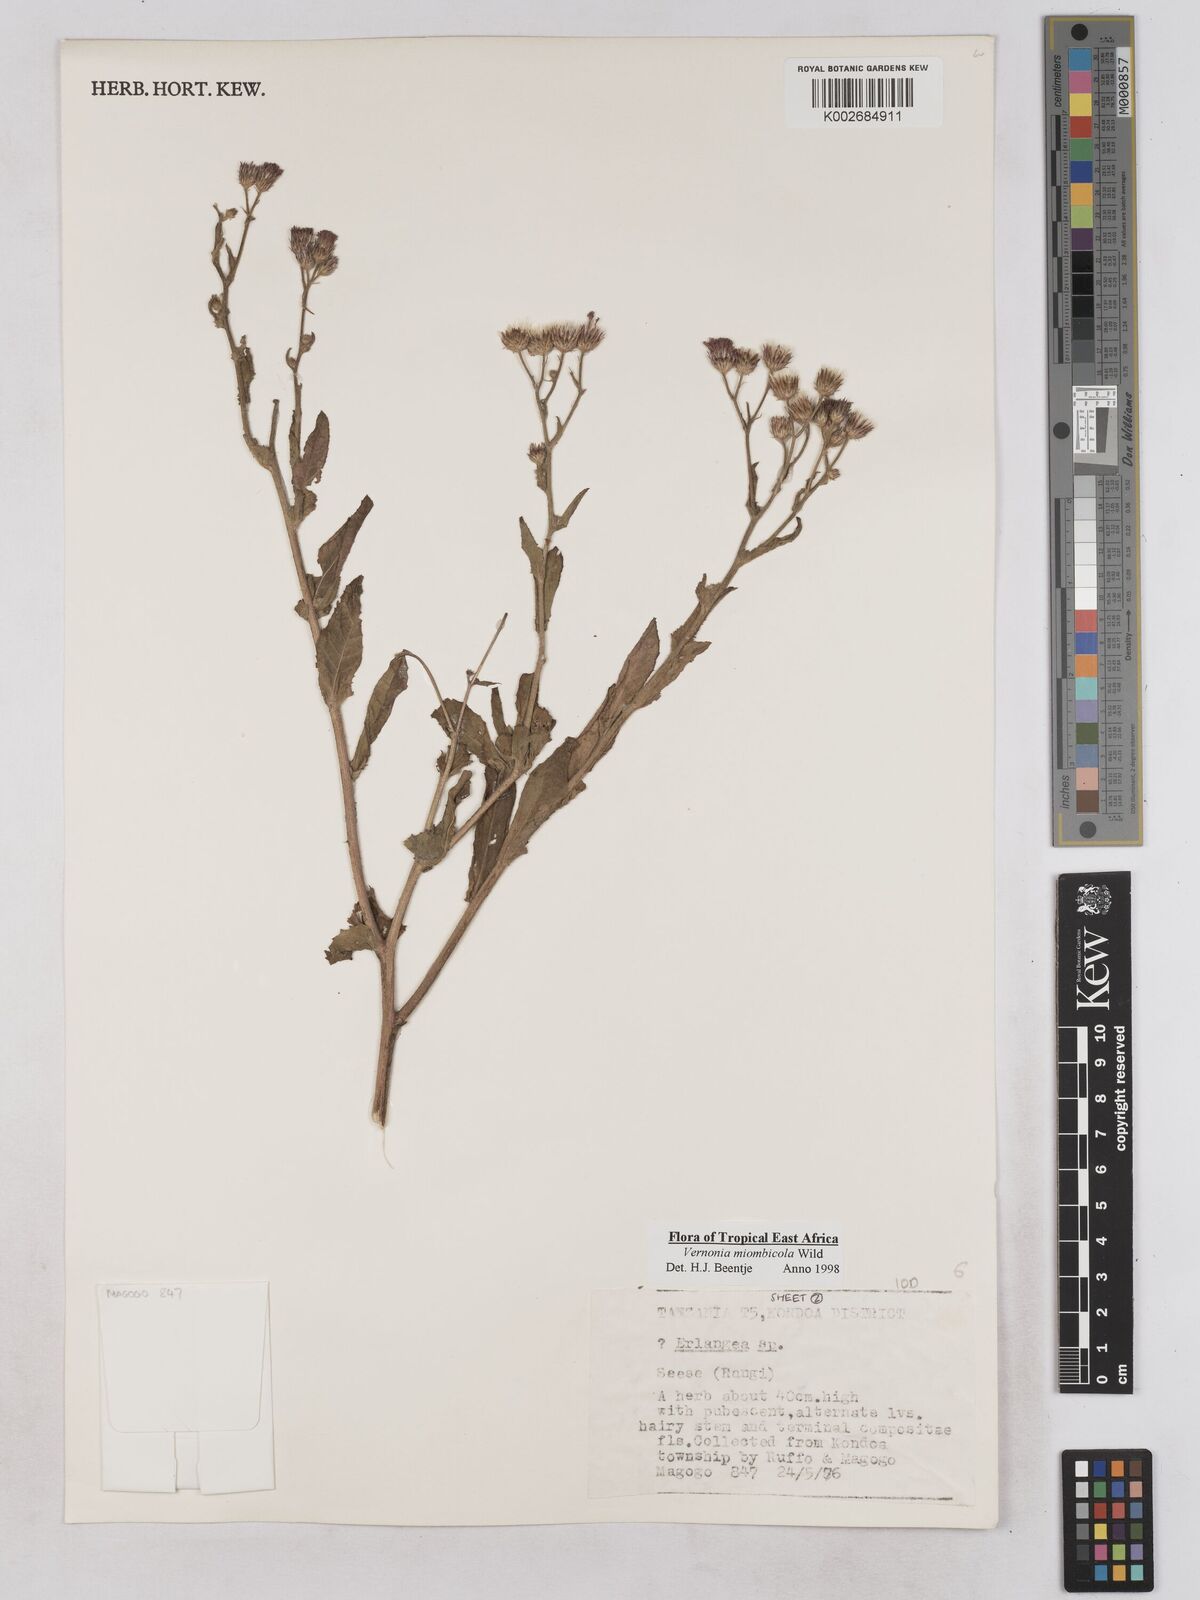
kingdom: Plantae
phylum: Tracheophyta
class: Magnoliopsida
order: Asterales
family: Asteraceae
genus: Vernonia
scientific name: Vernonia miombicola
